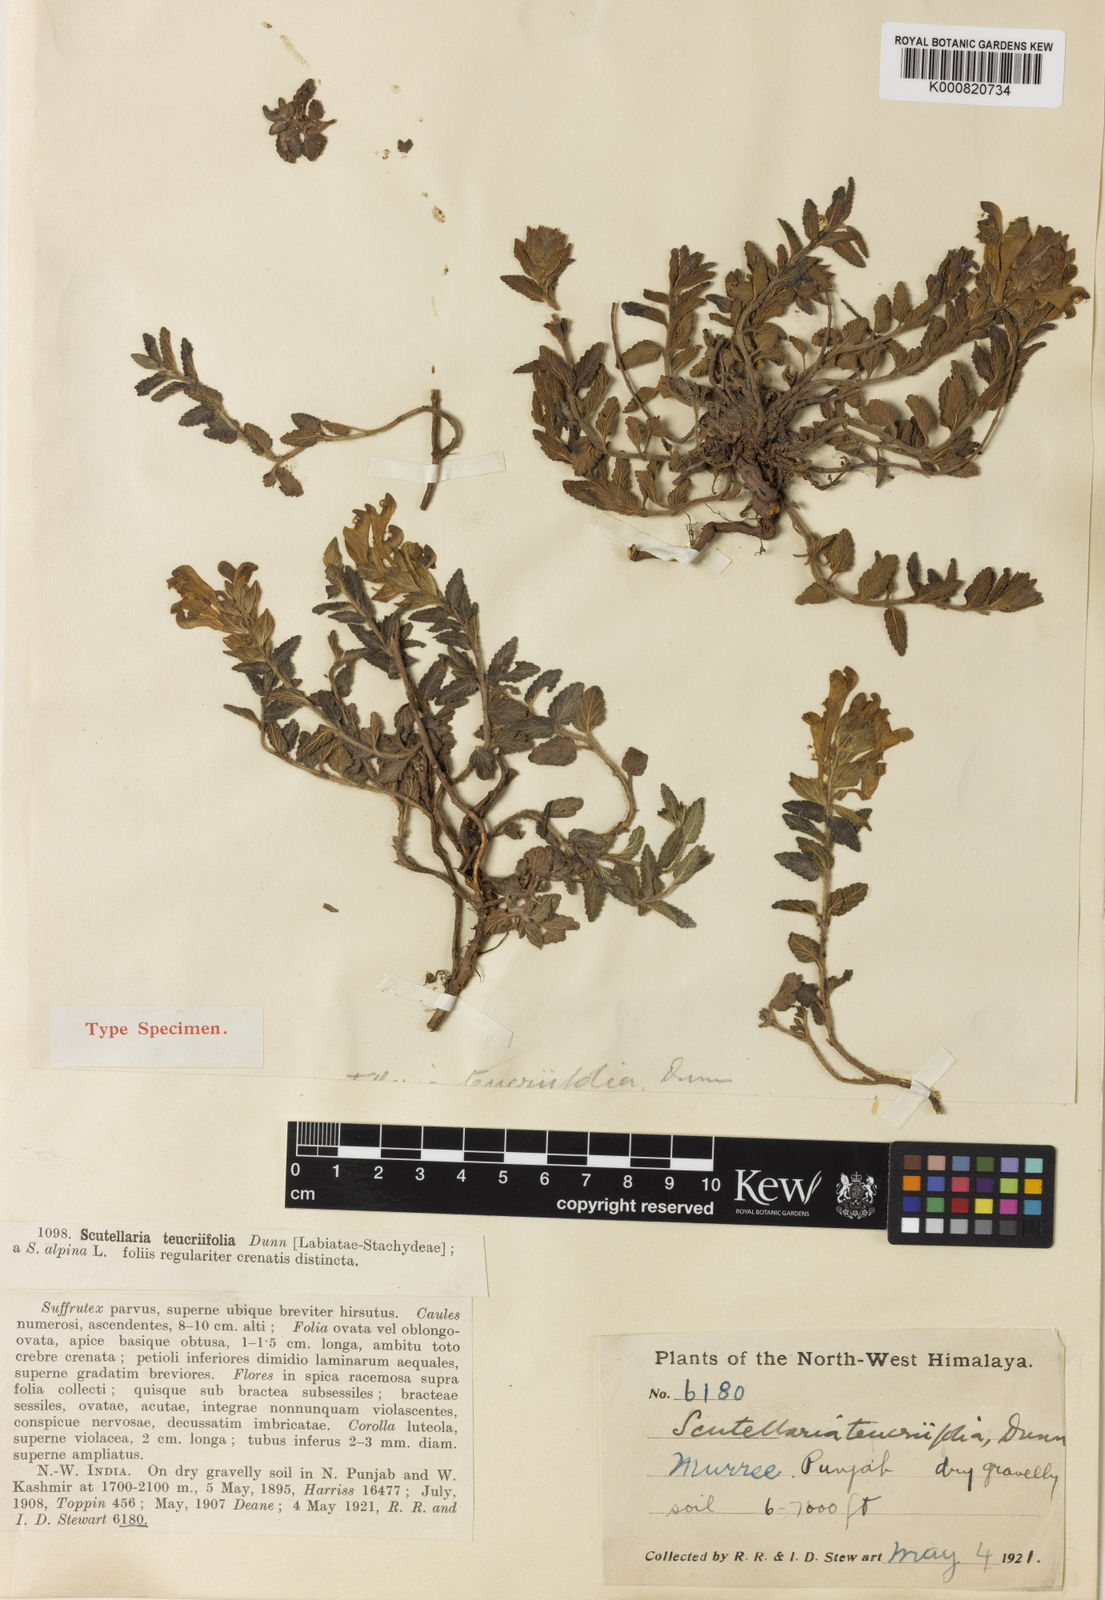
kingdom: Plantae
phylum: Tracheophyta
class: Magnoliopsida
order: Lamiales
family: Lamiaceae
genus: Scutellaria
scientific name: Scutellaria chamaedrifolia
